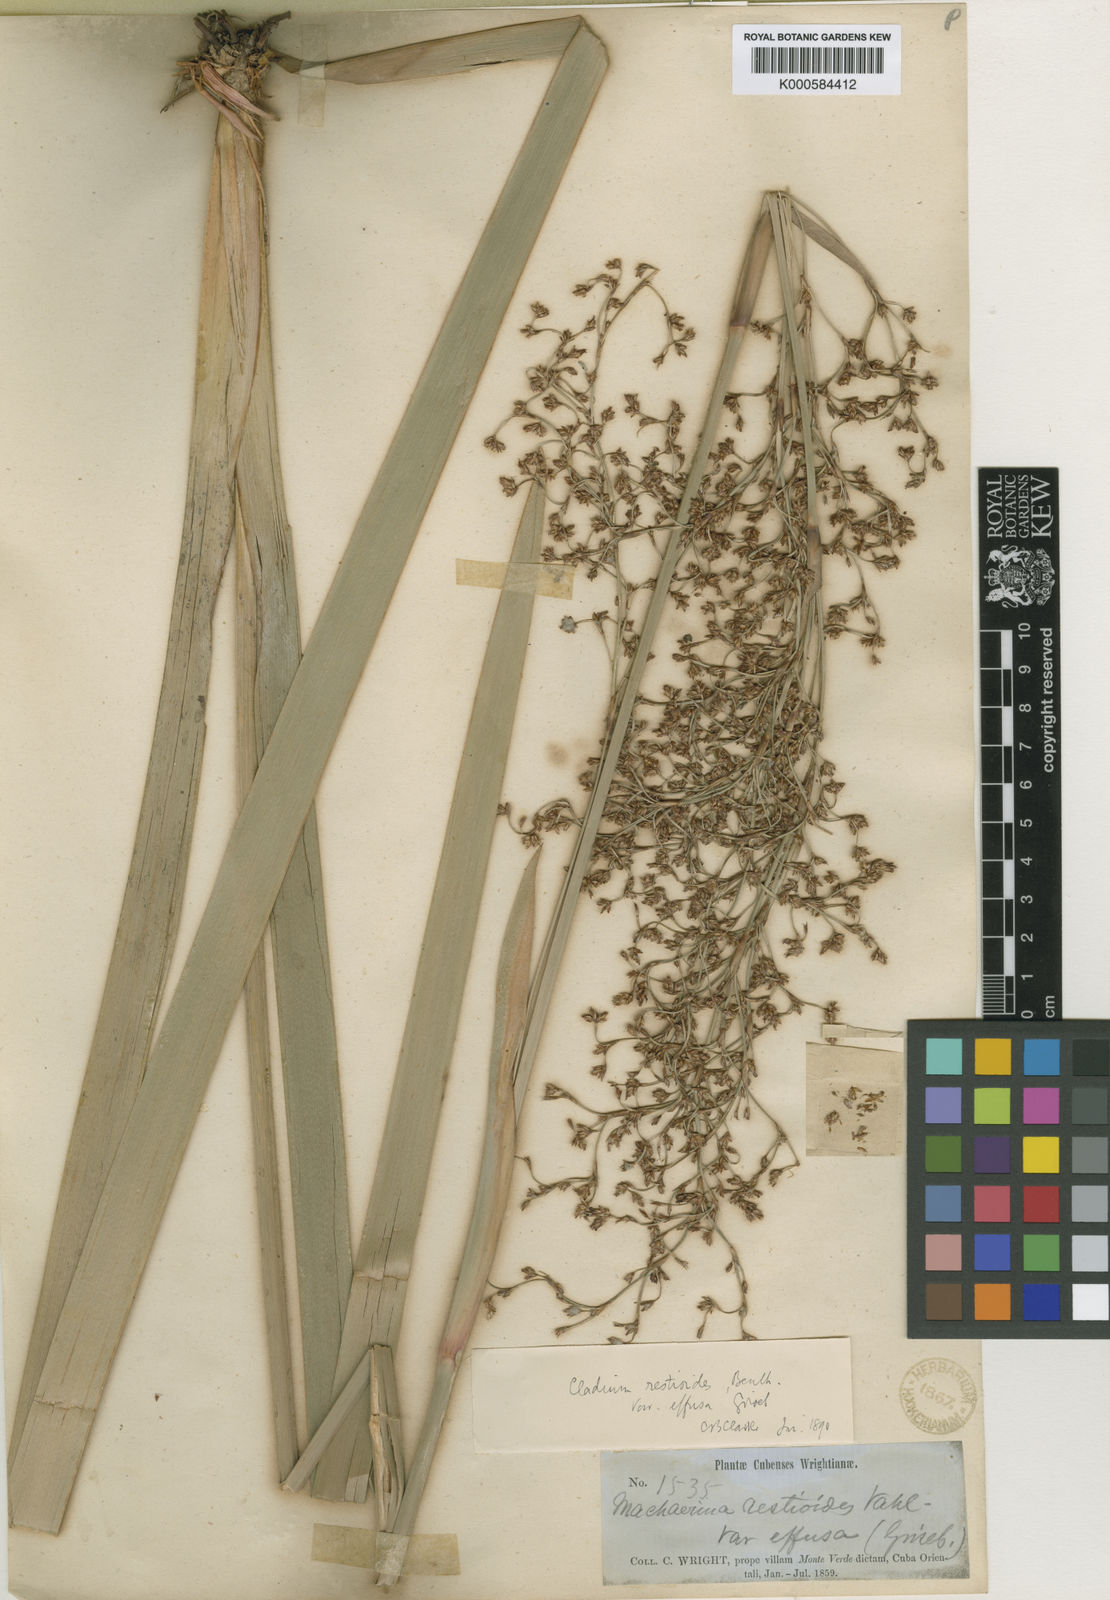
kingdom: Plantae
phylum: Tracheophyta
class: Liliopsida
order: Poales
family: Cyperaceae
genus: Machaerina
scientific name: Machaerina restioides
